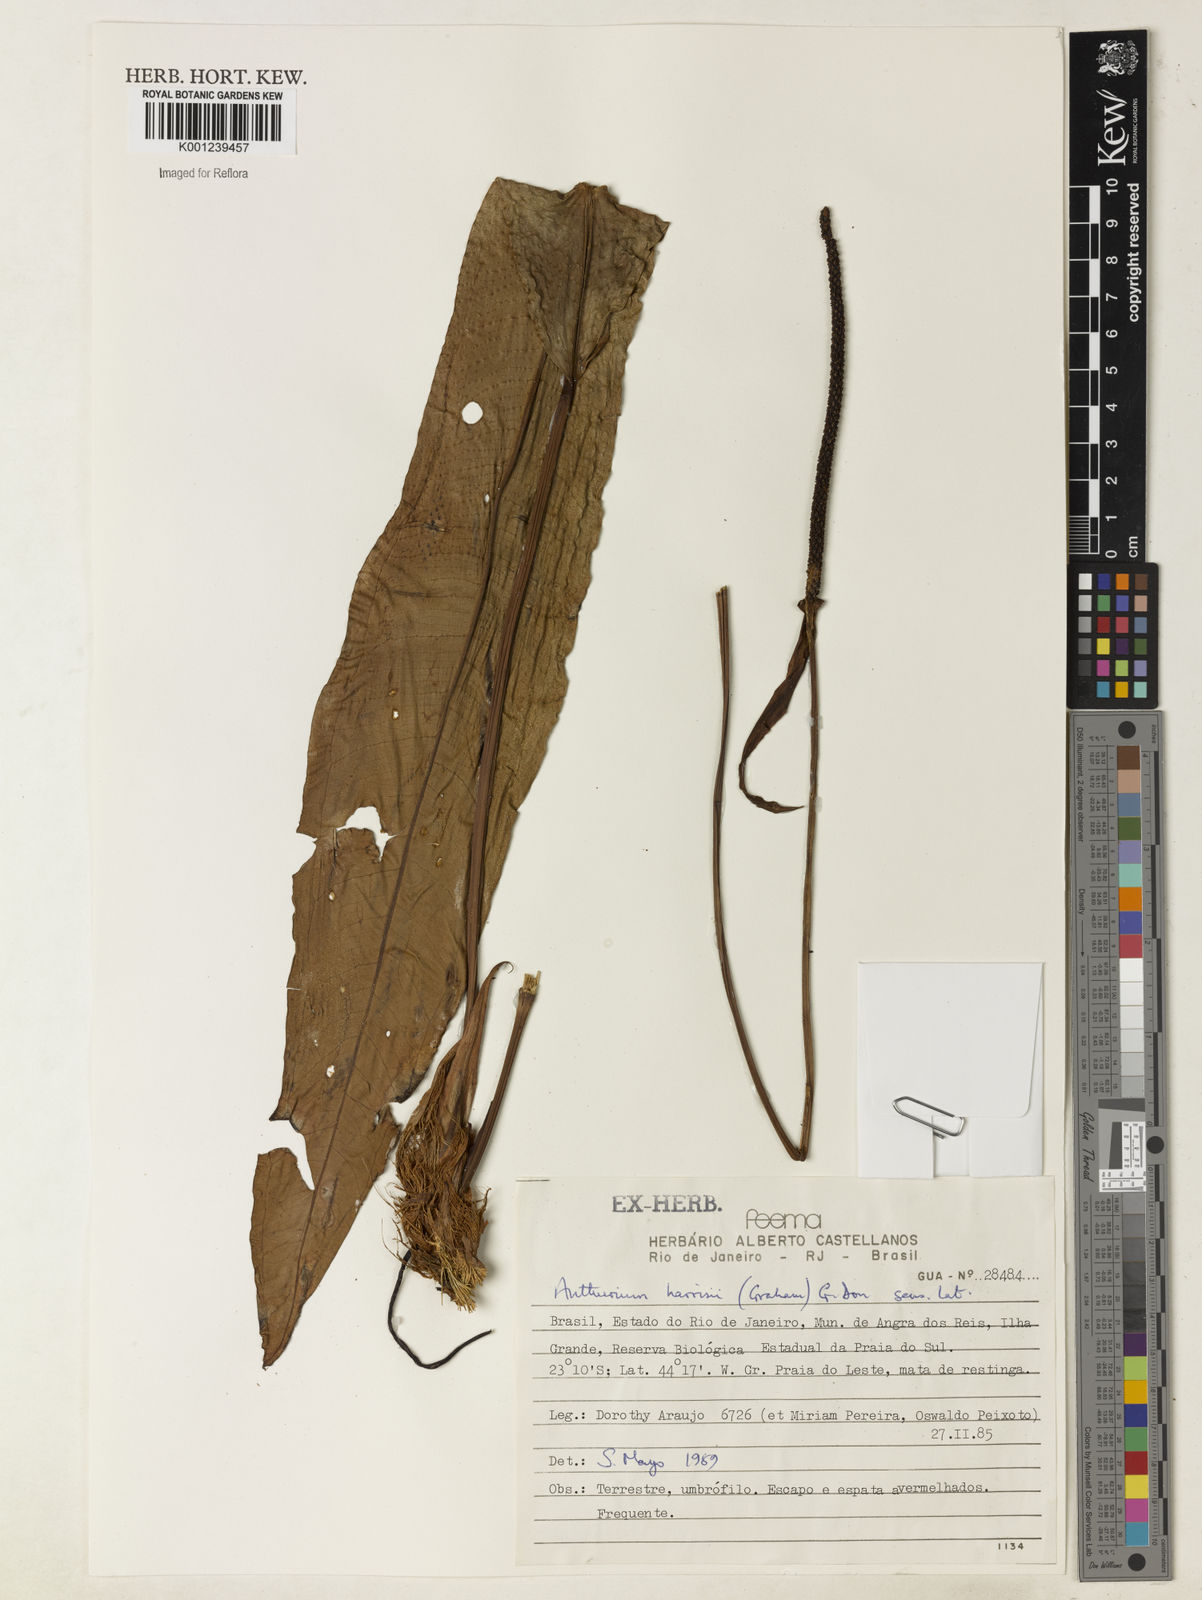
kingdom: Plantae
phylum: Tracheophyta
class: Liliopsida
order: Alismatales
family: Araceae
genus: Anthurium
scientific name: Anthurium harrisii
